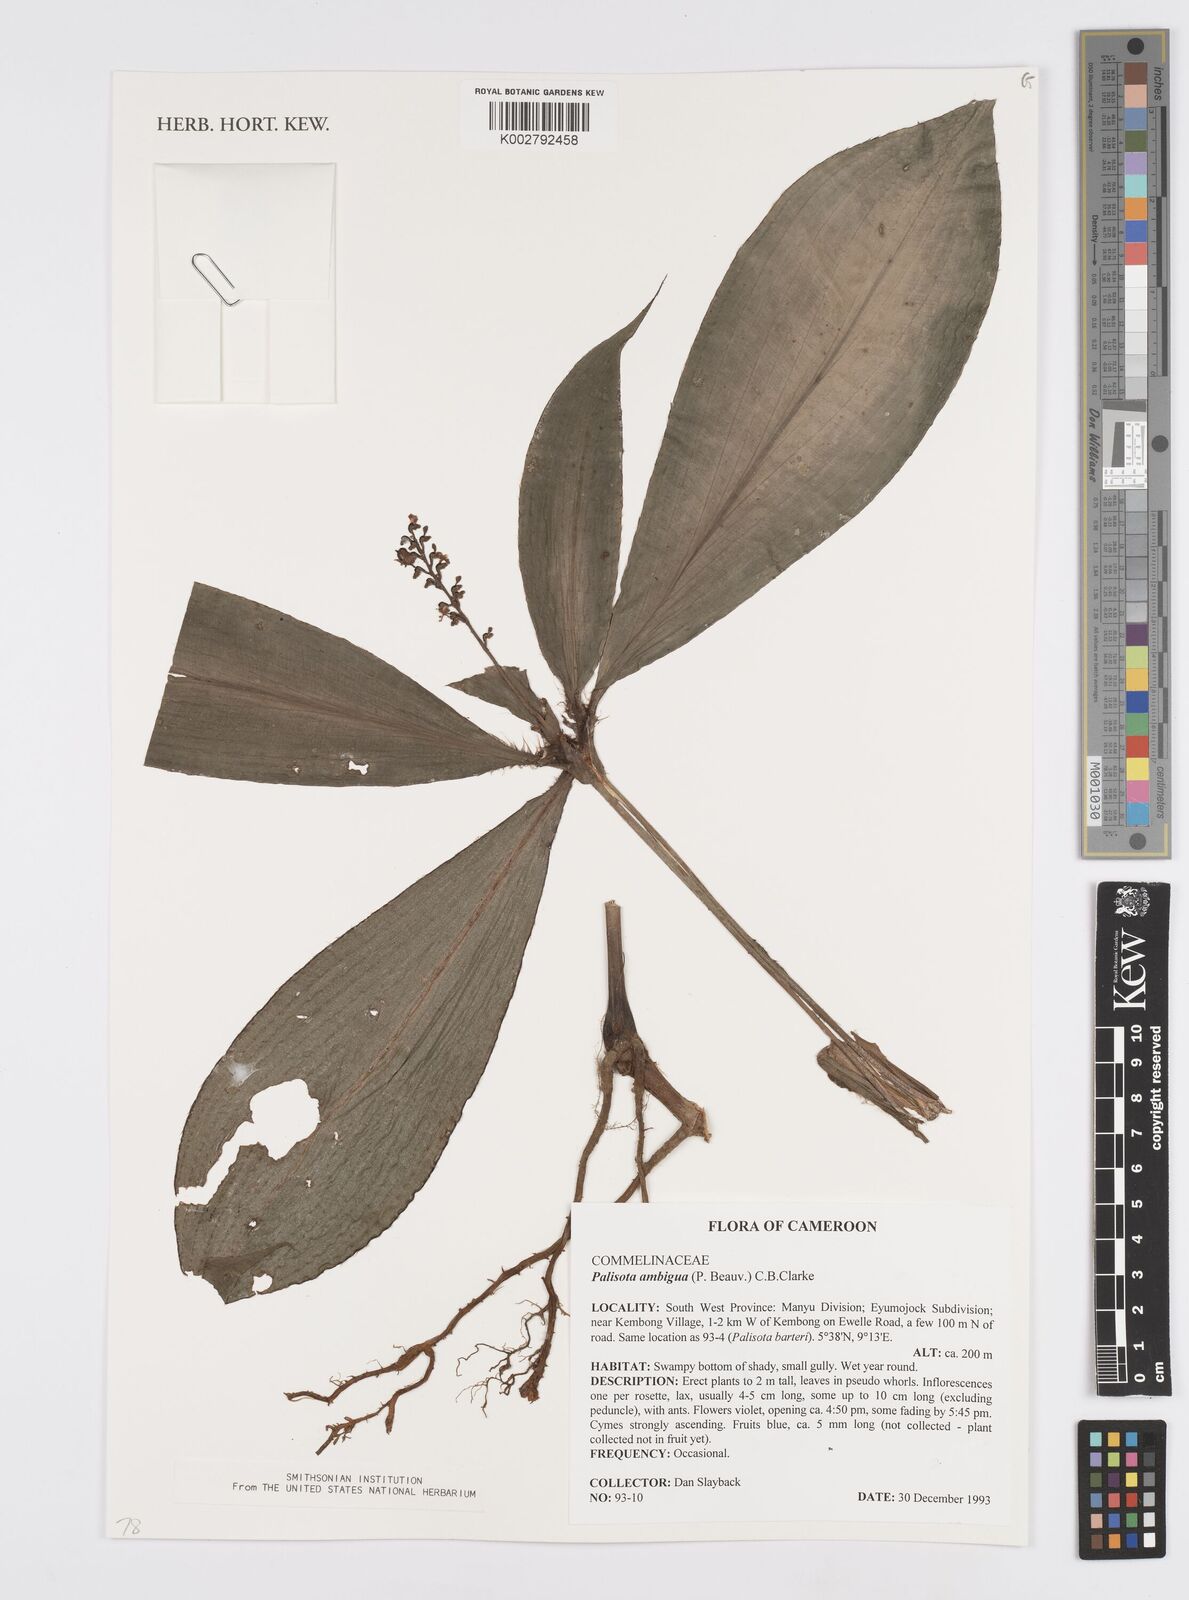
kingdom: Plantae
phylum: Tracheophyta
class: Liliopsida
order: Commelinales
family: Commelinaceae
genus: Palisota
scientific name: Palisota ambigua
